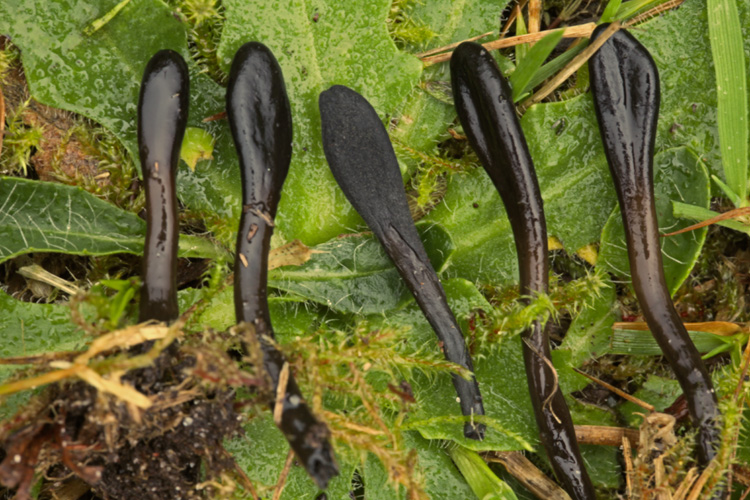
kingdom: Fungi
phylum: Ascomycota
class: Geoglossomycetes
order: Geoglossales
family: Geoglossaceae
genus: Glutinoglossum
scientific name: Glutinoglossum glutinosum
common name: slimet jordtunge
